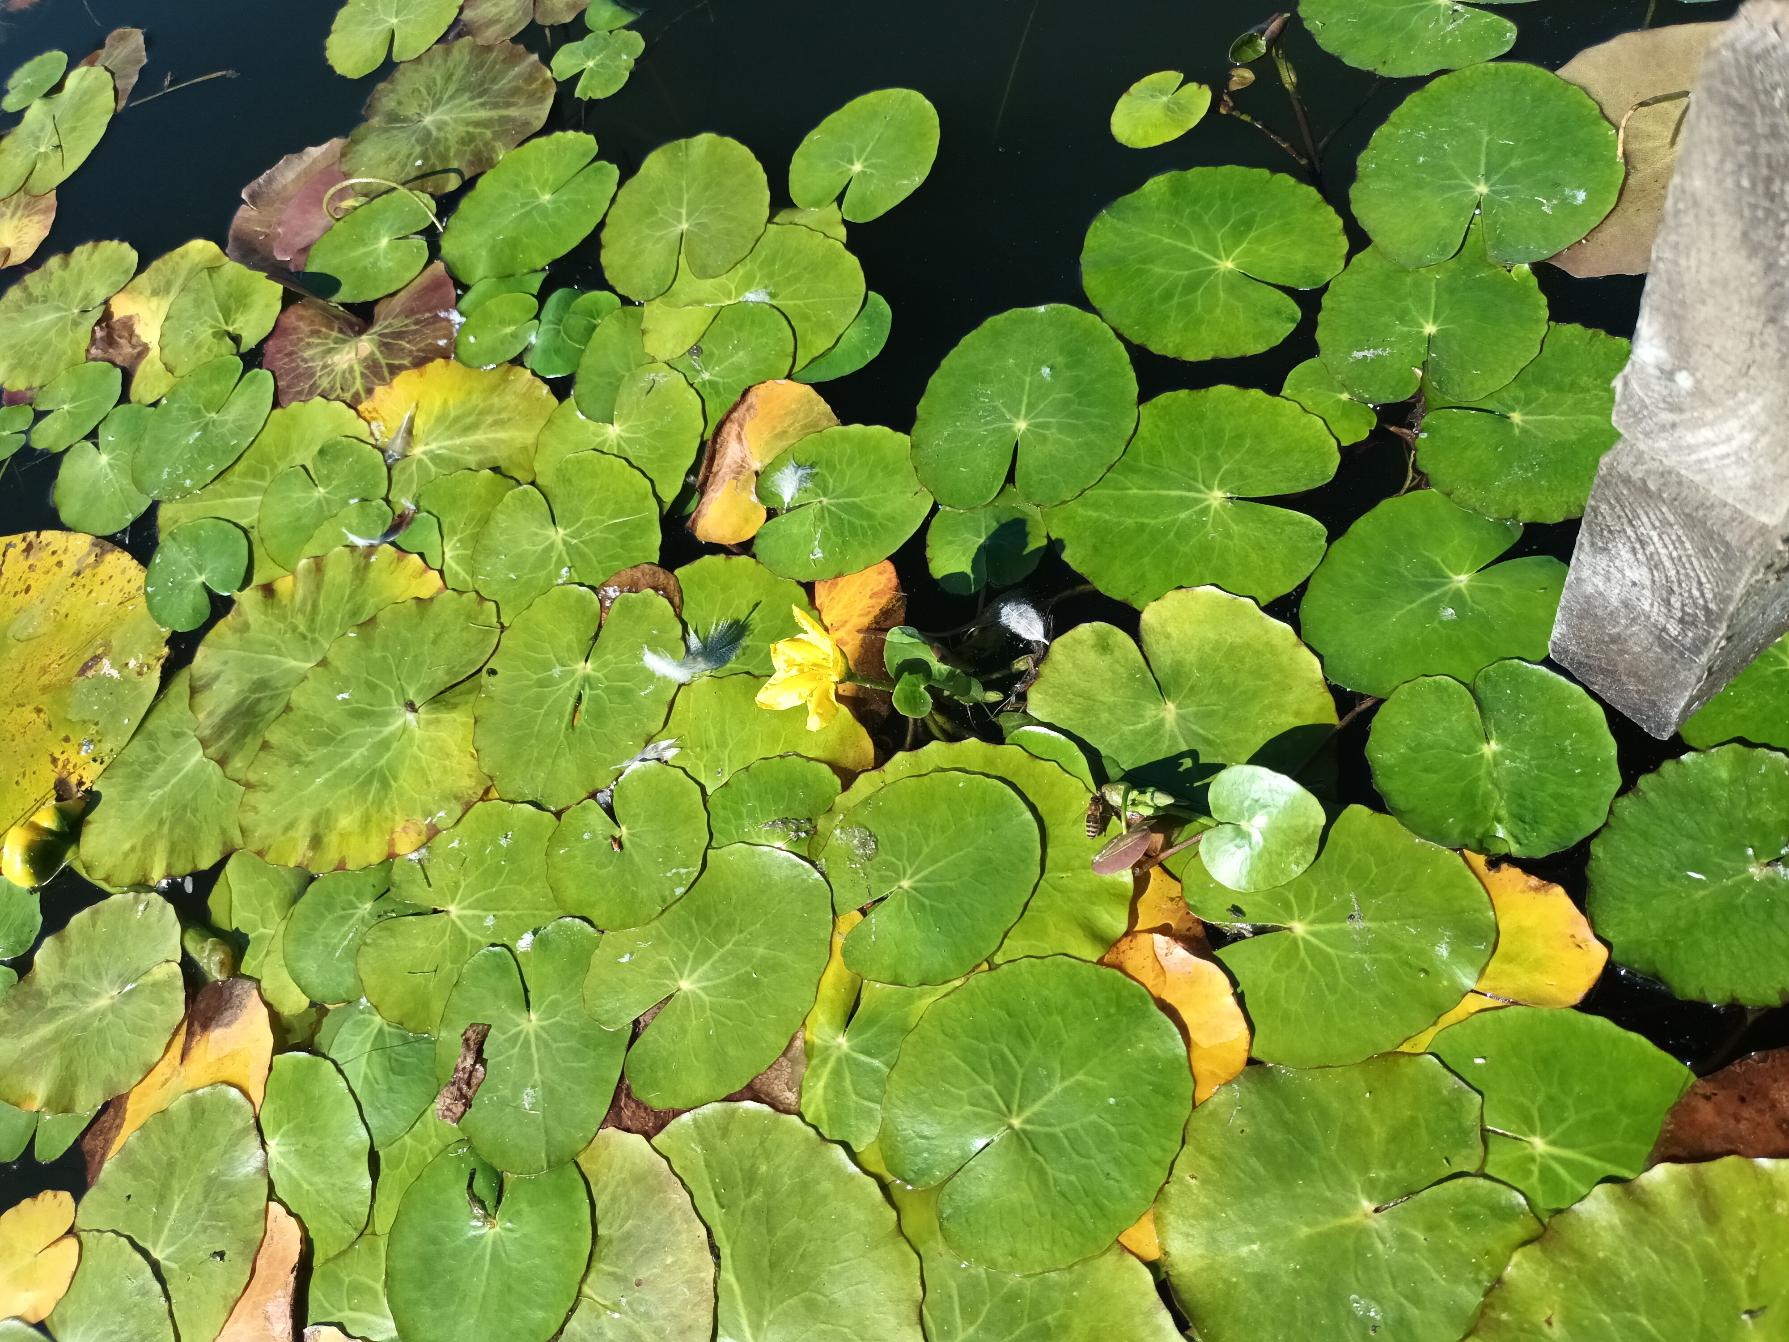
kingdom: Plantae
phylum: Tracheophyta
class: Magnoliopsida
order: Asterales
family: Menyanthaceae
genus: Nymphoides
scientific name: Nymphoides peltata
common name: Søblad
